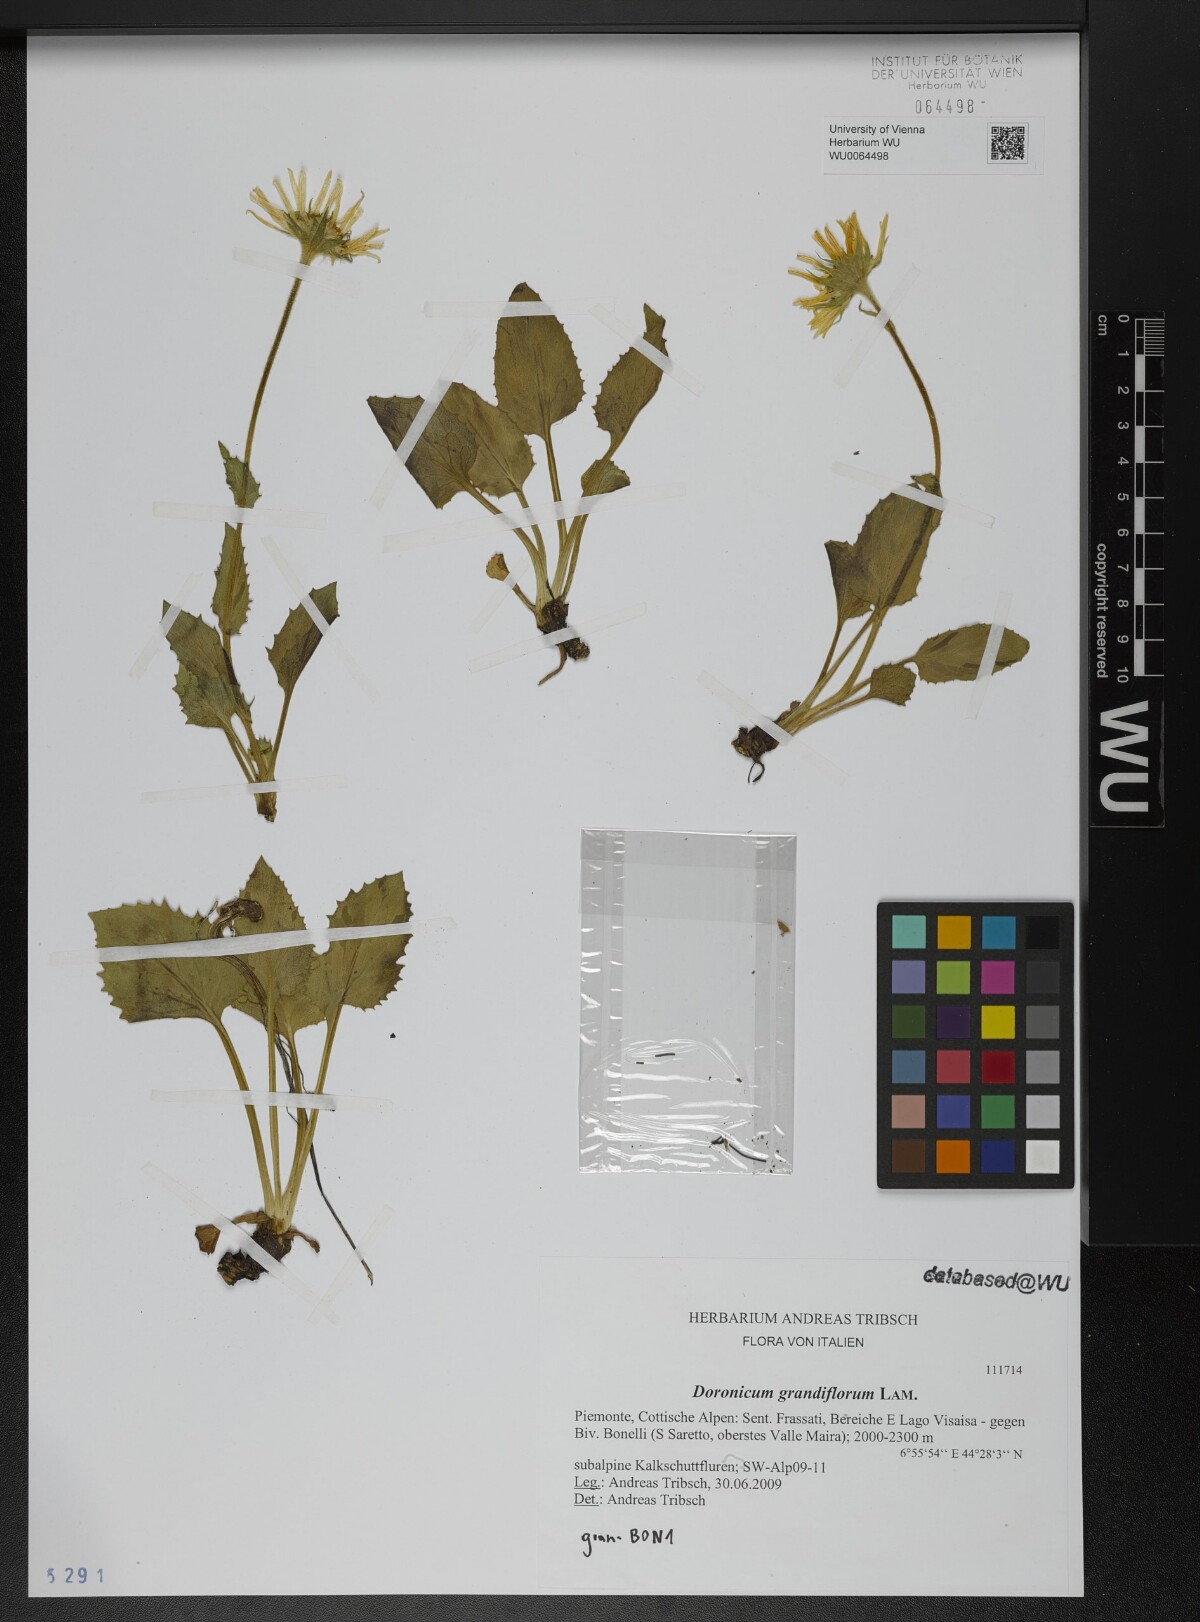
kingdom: Plantae
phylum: Tracheophyta
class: Magnoliopsida
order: Asterales
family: Asteraceae
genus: Doronicum
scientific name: Doronicum grandiflorum
